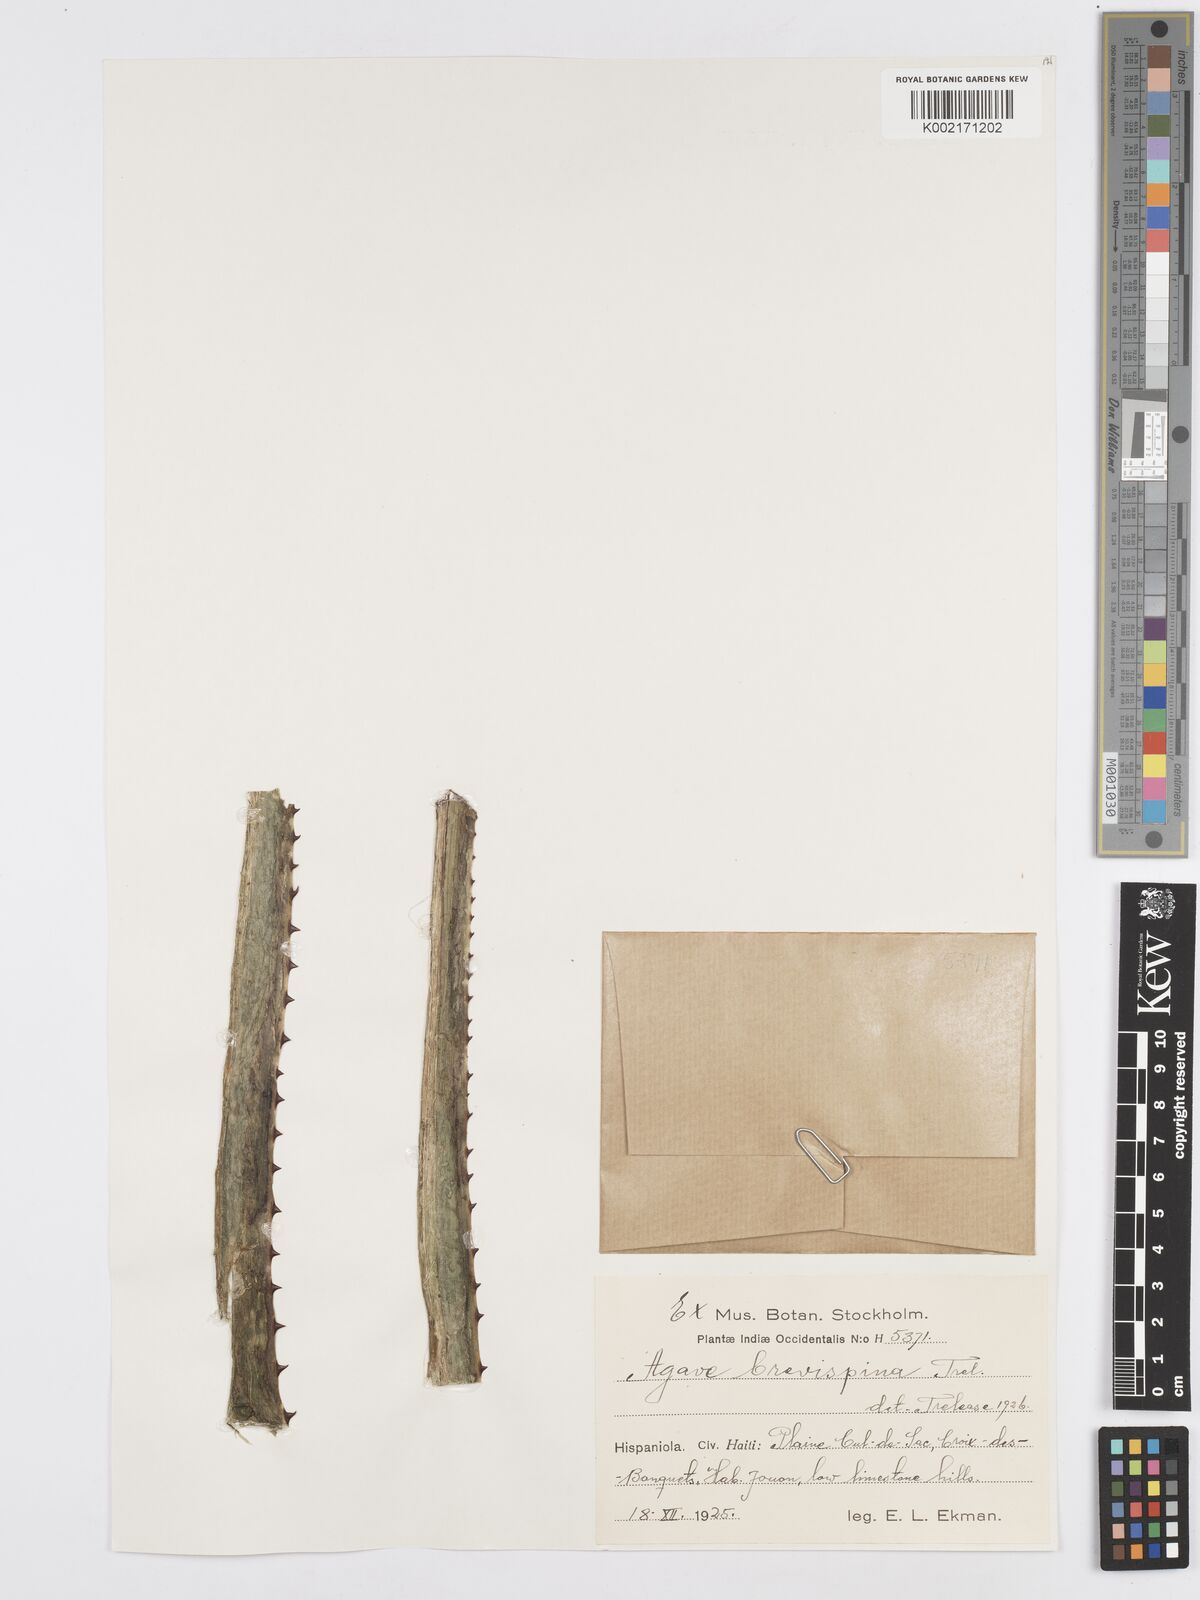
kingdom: Plantae
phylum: Tracheophyta
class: Liliopsida
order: Asparagales
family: Asparagaceae
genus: Agave
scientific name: Agave brevispina
